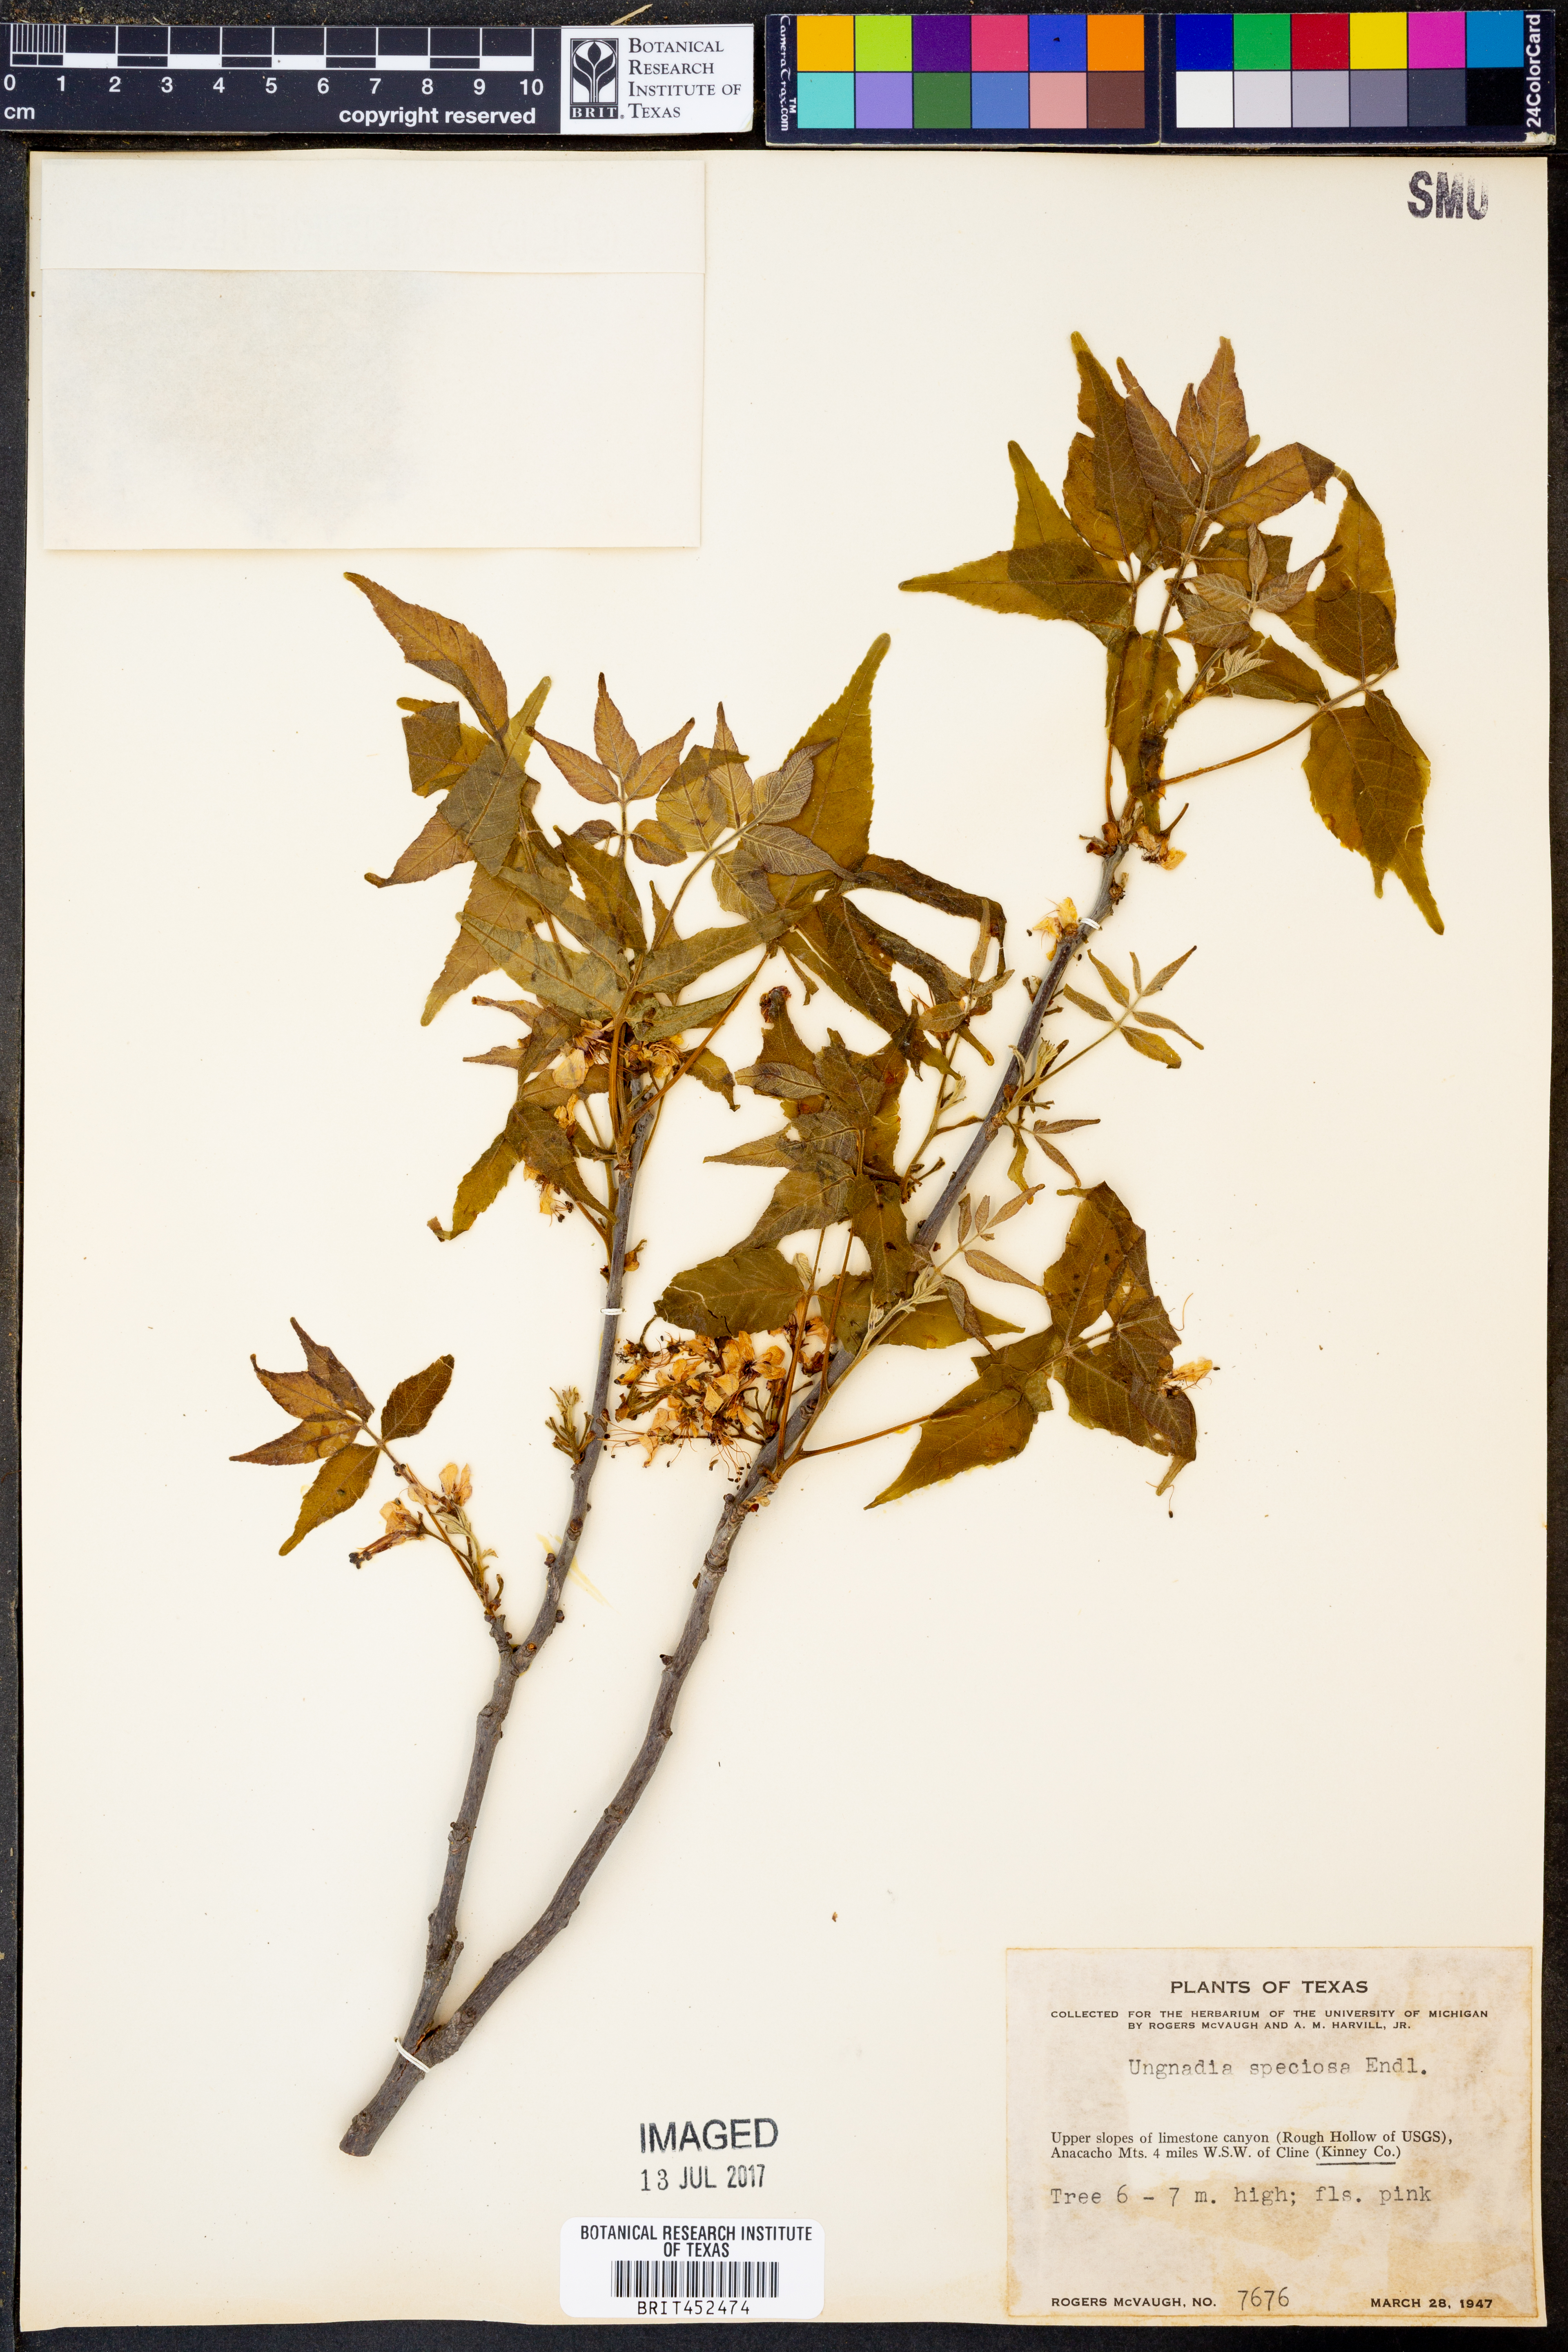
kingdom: Plantae
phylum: Tracheophyta
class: Magnoliopsida
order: Sapindales
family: Sapindaceae
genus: Ungnadia
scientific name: Ungnadia speciosa
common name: Texas-buckeye
